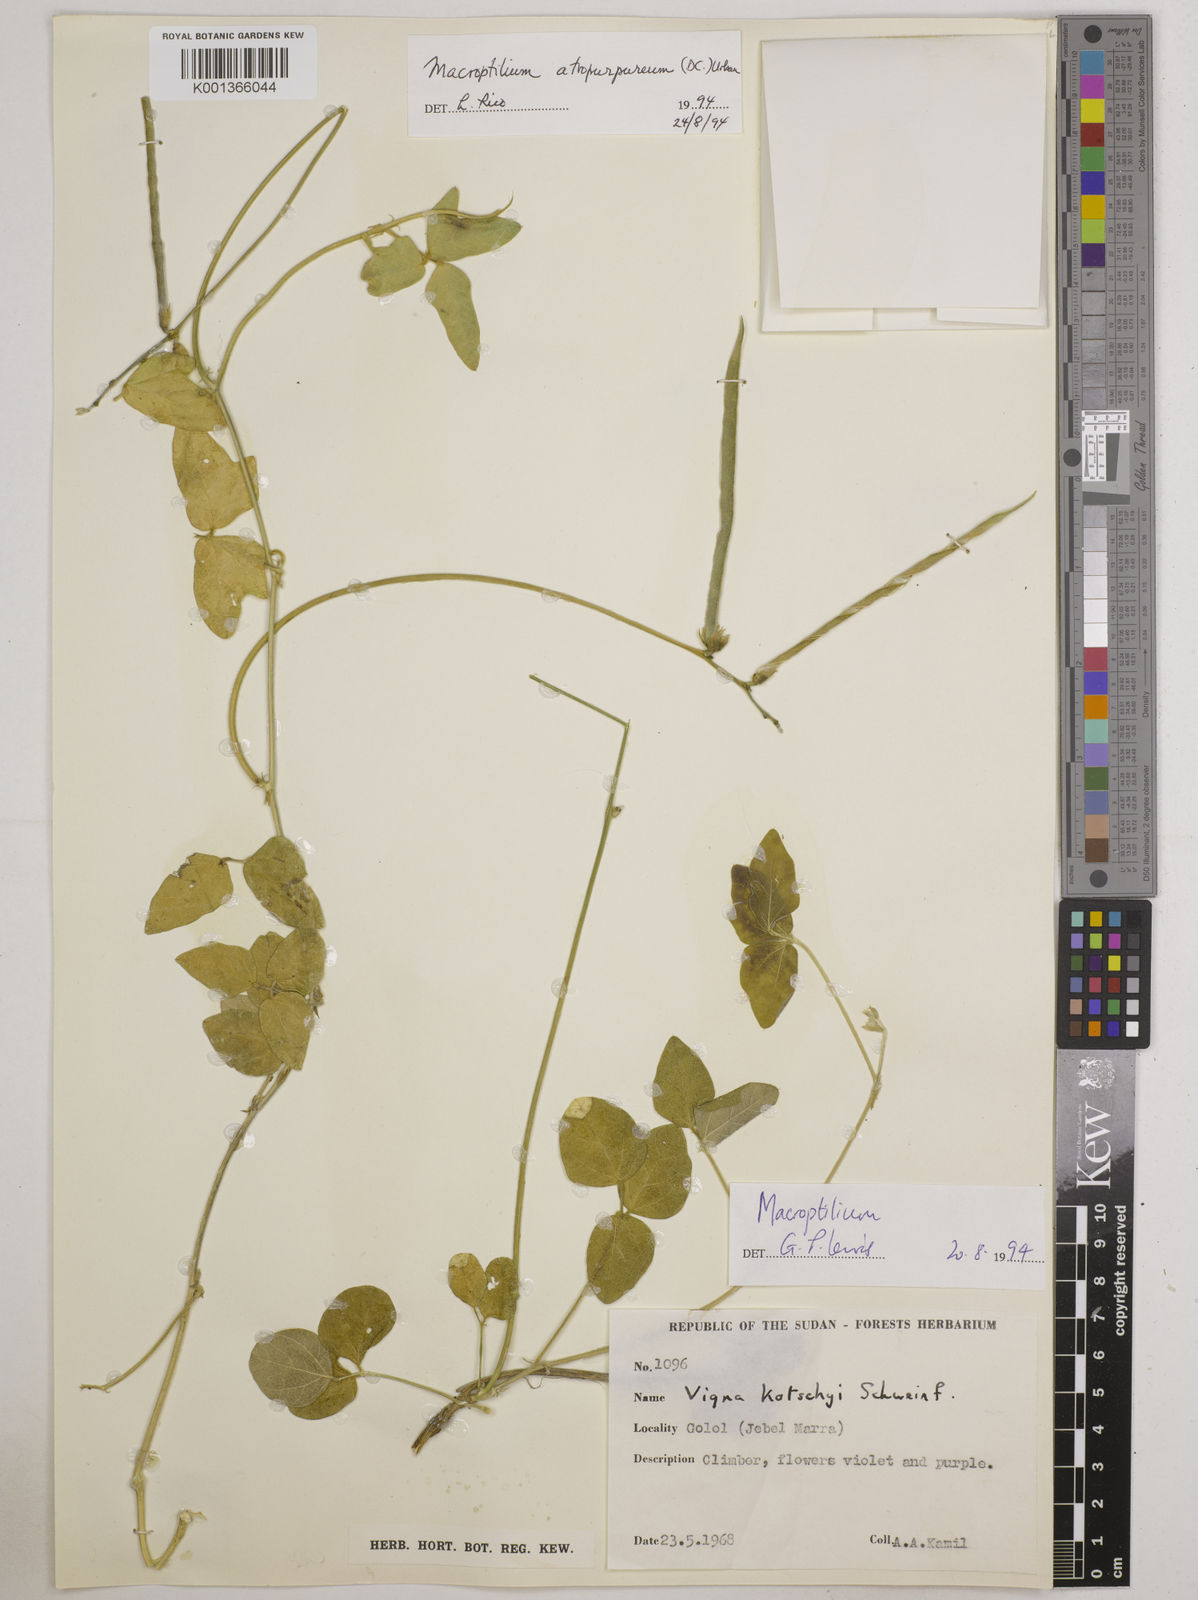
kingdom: Plantae
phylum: Tracheophyta
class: Magnoliopsida
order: Fabales
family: Fabaceae
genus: Macroptilium
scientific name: Macroptilium atropurpureum
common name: Purple bushbean
